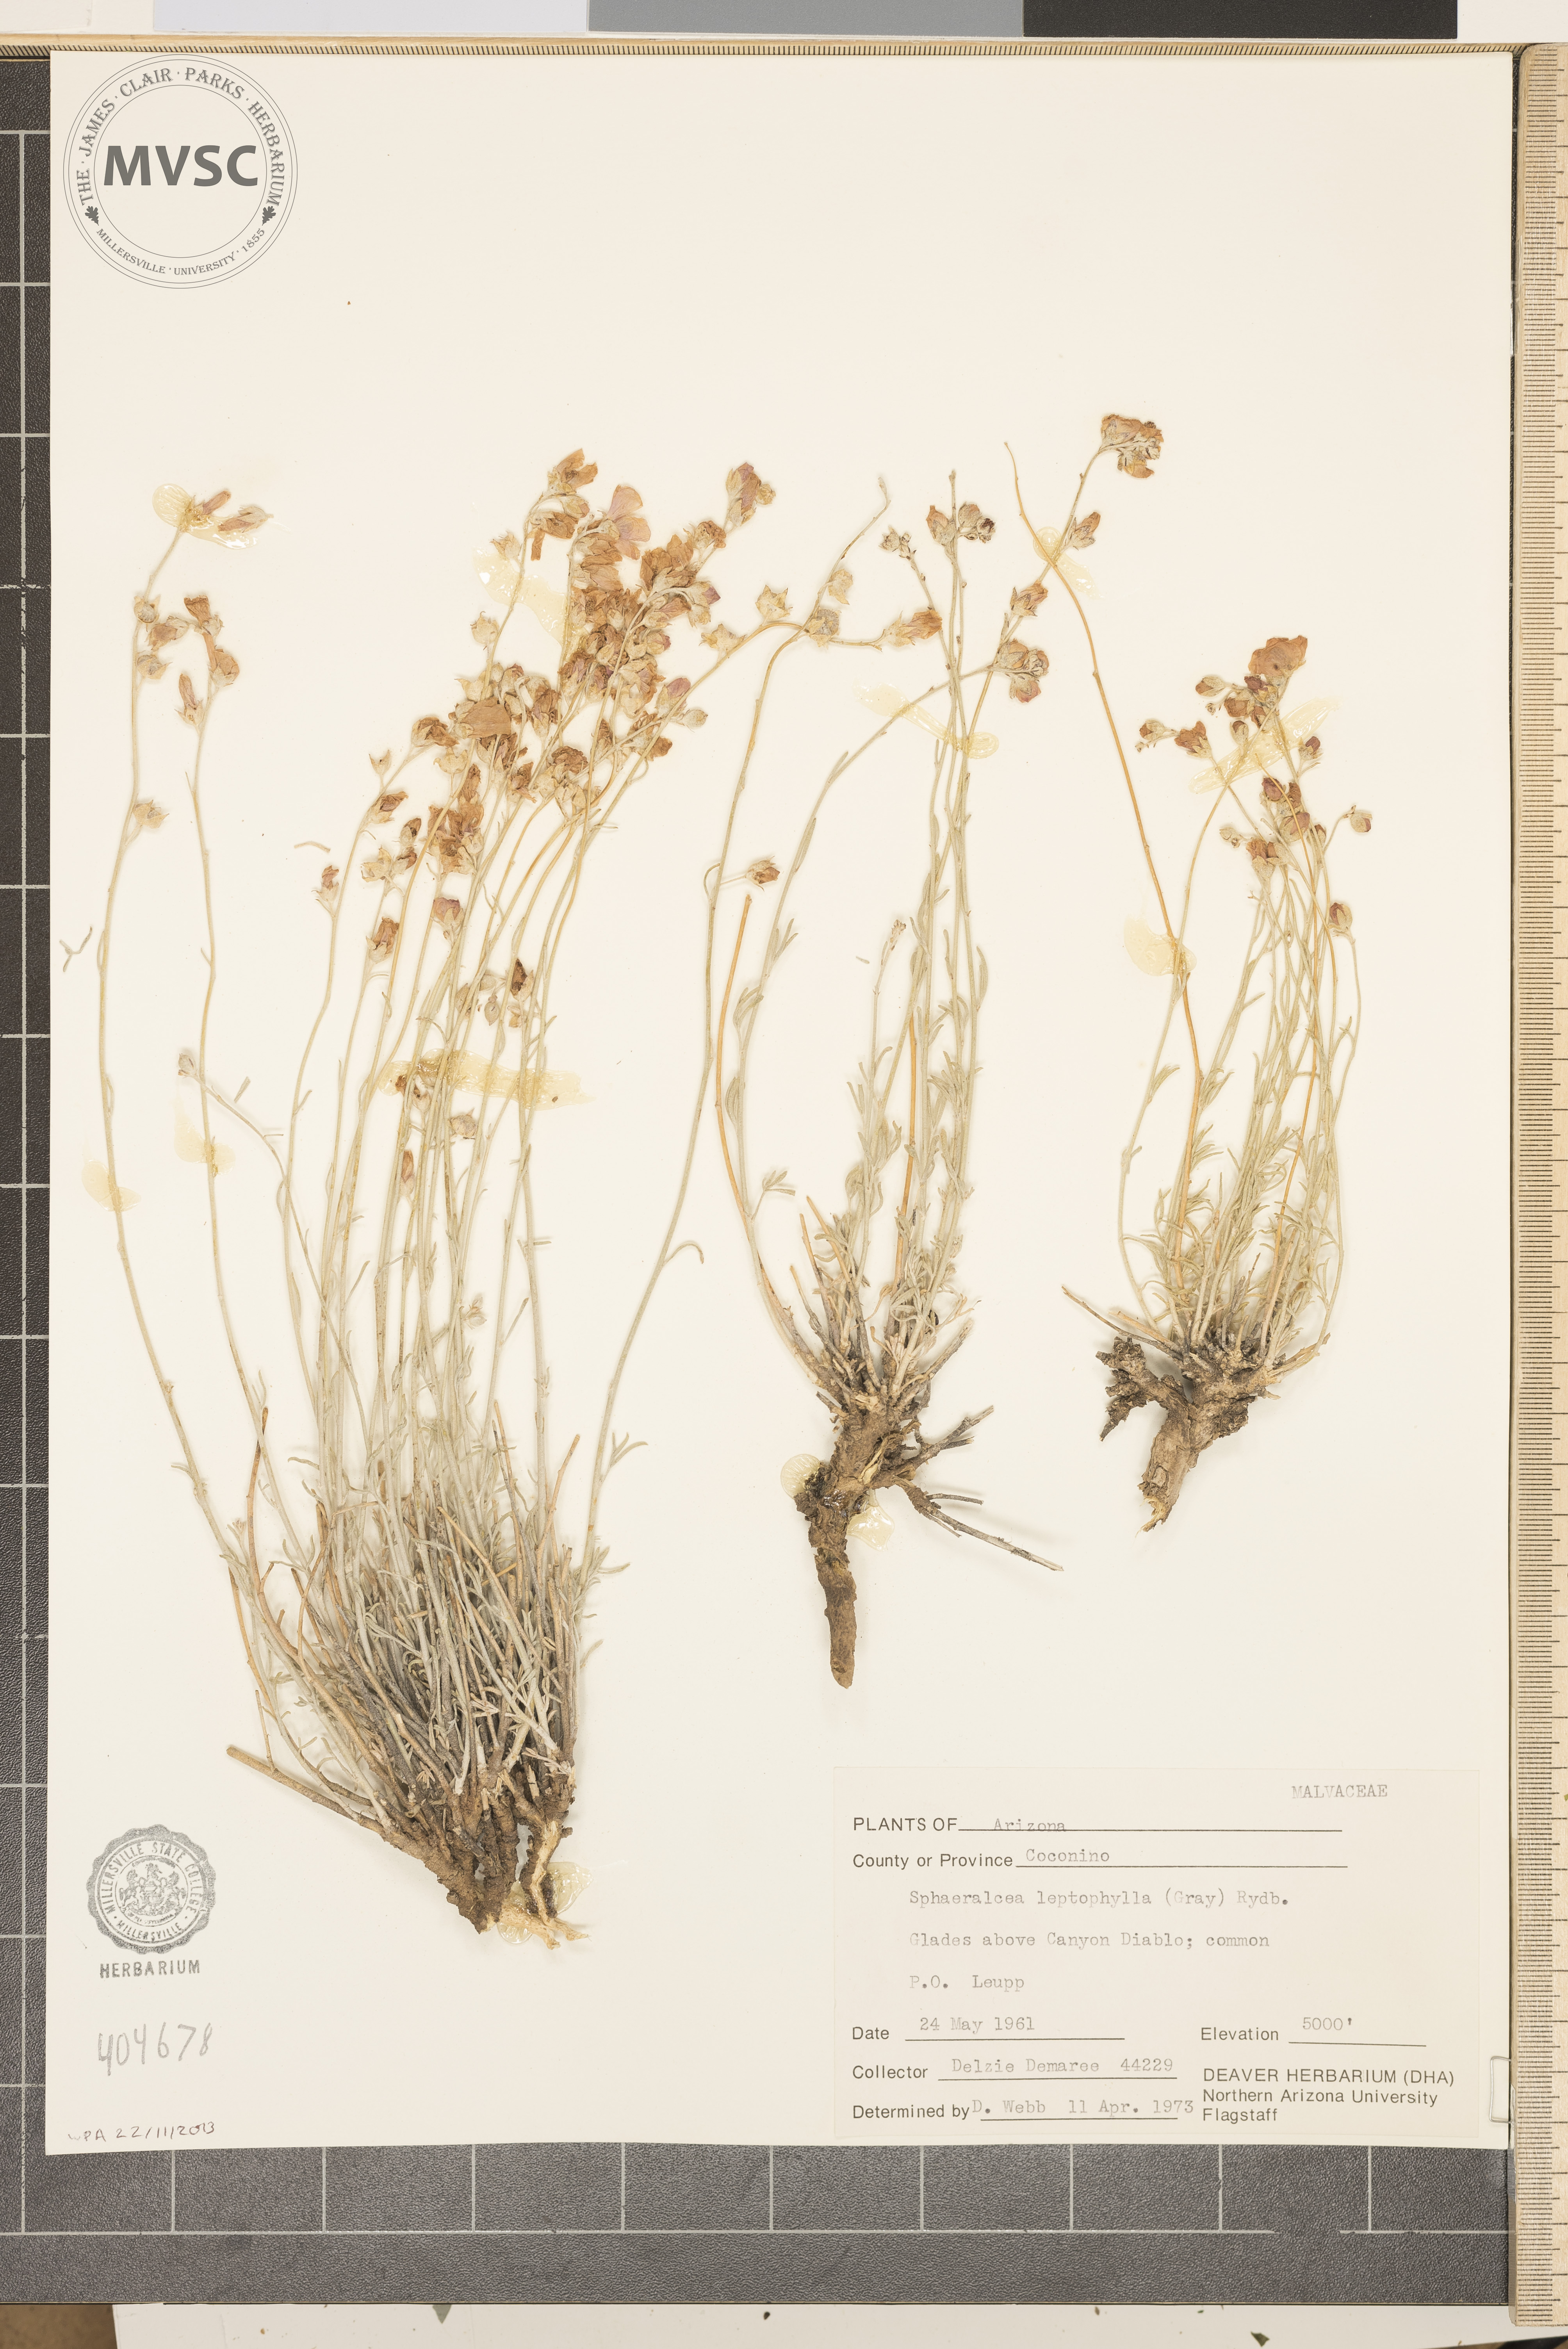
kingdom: Plantae
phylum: Tracheophyta
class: Magnoliopsida
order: Malvales
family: Malvaceae
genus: Sphaeralcea
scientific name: Sphaeralcea leptophylla
